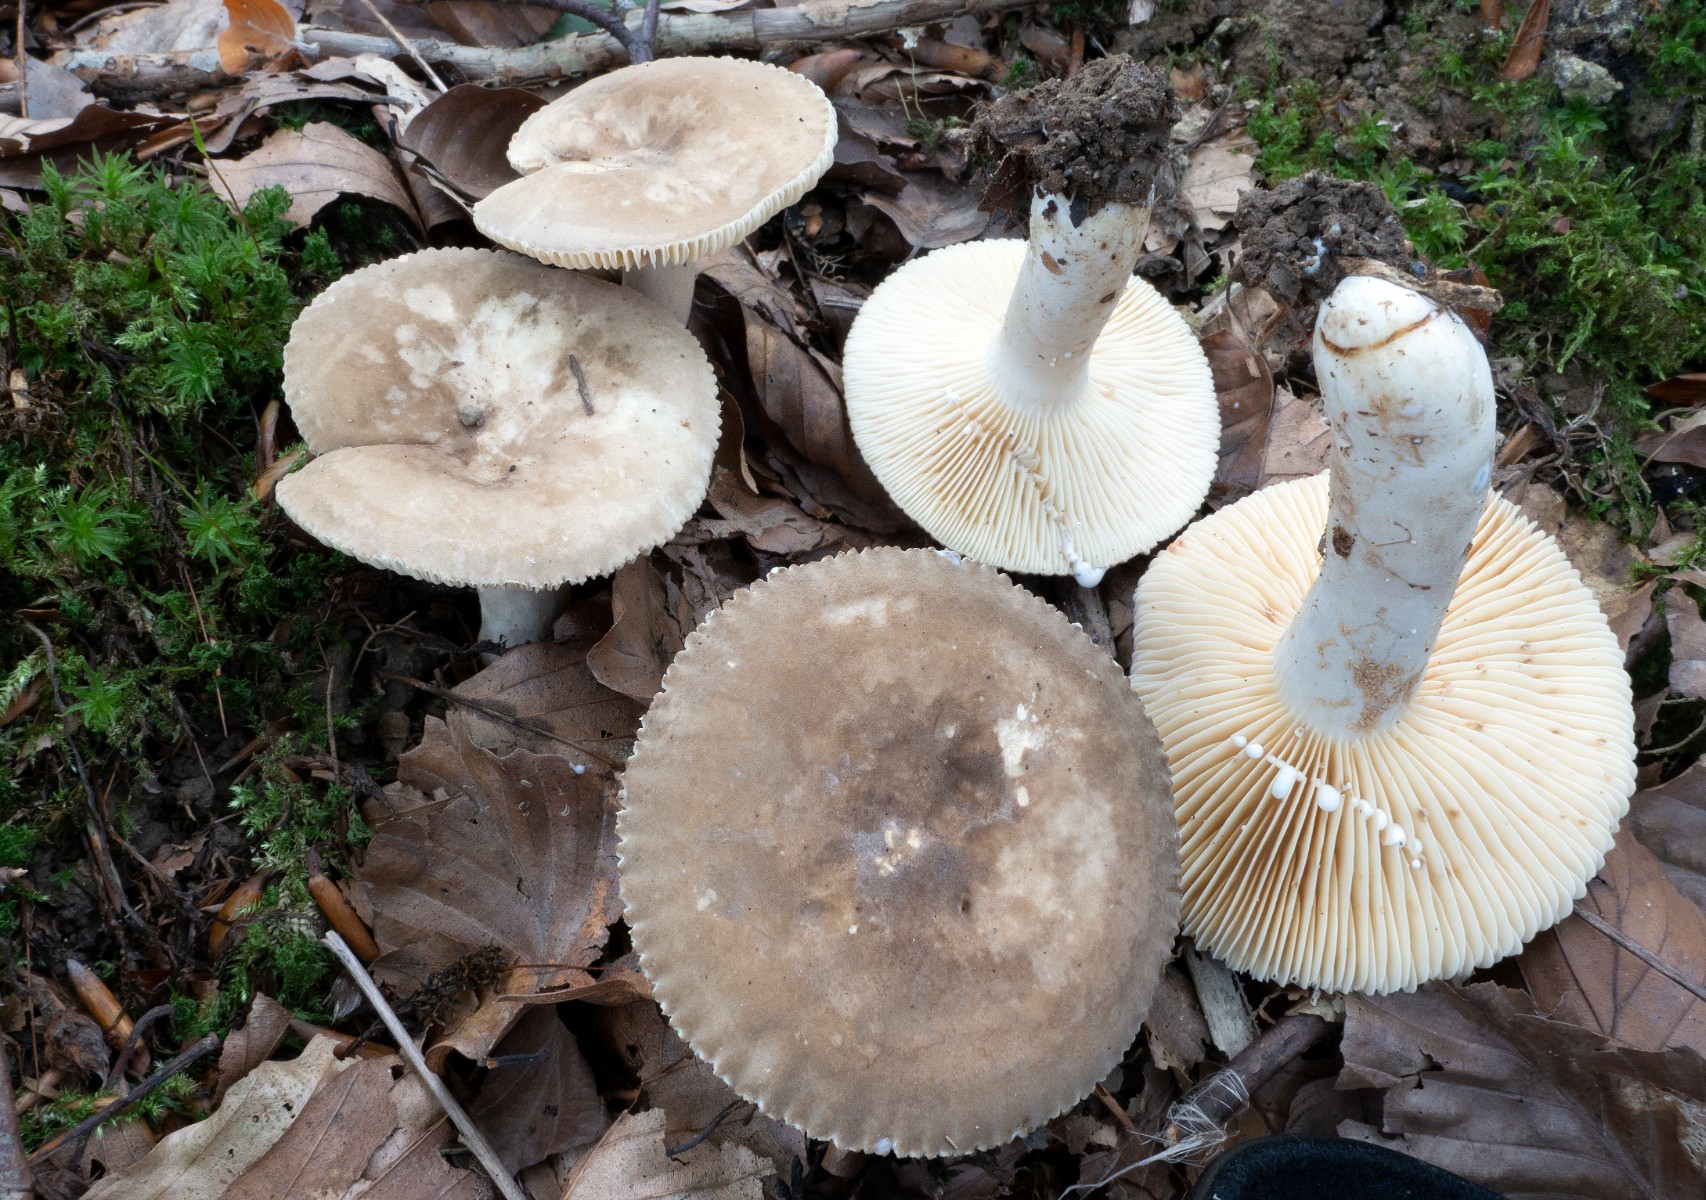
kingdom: Fungi
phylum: Basidiomycota
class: Agaricomycetes
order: Russulales
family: Russulaceae
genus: Lactarius
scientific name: Lactarius pterosporus
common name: vingesporet mælkehat
